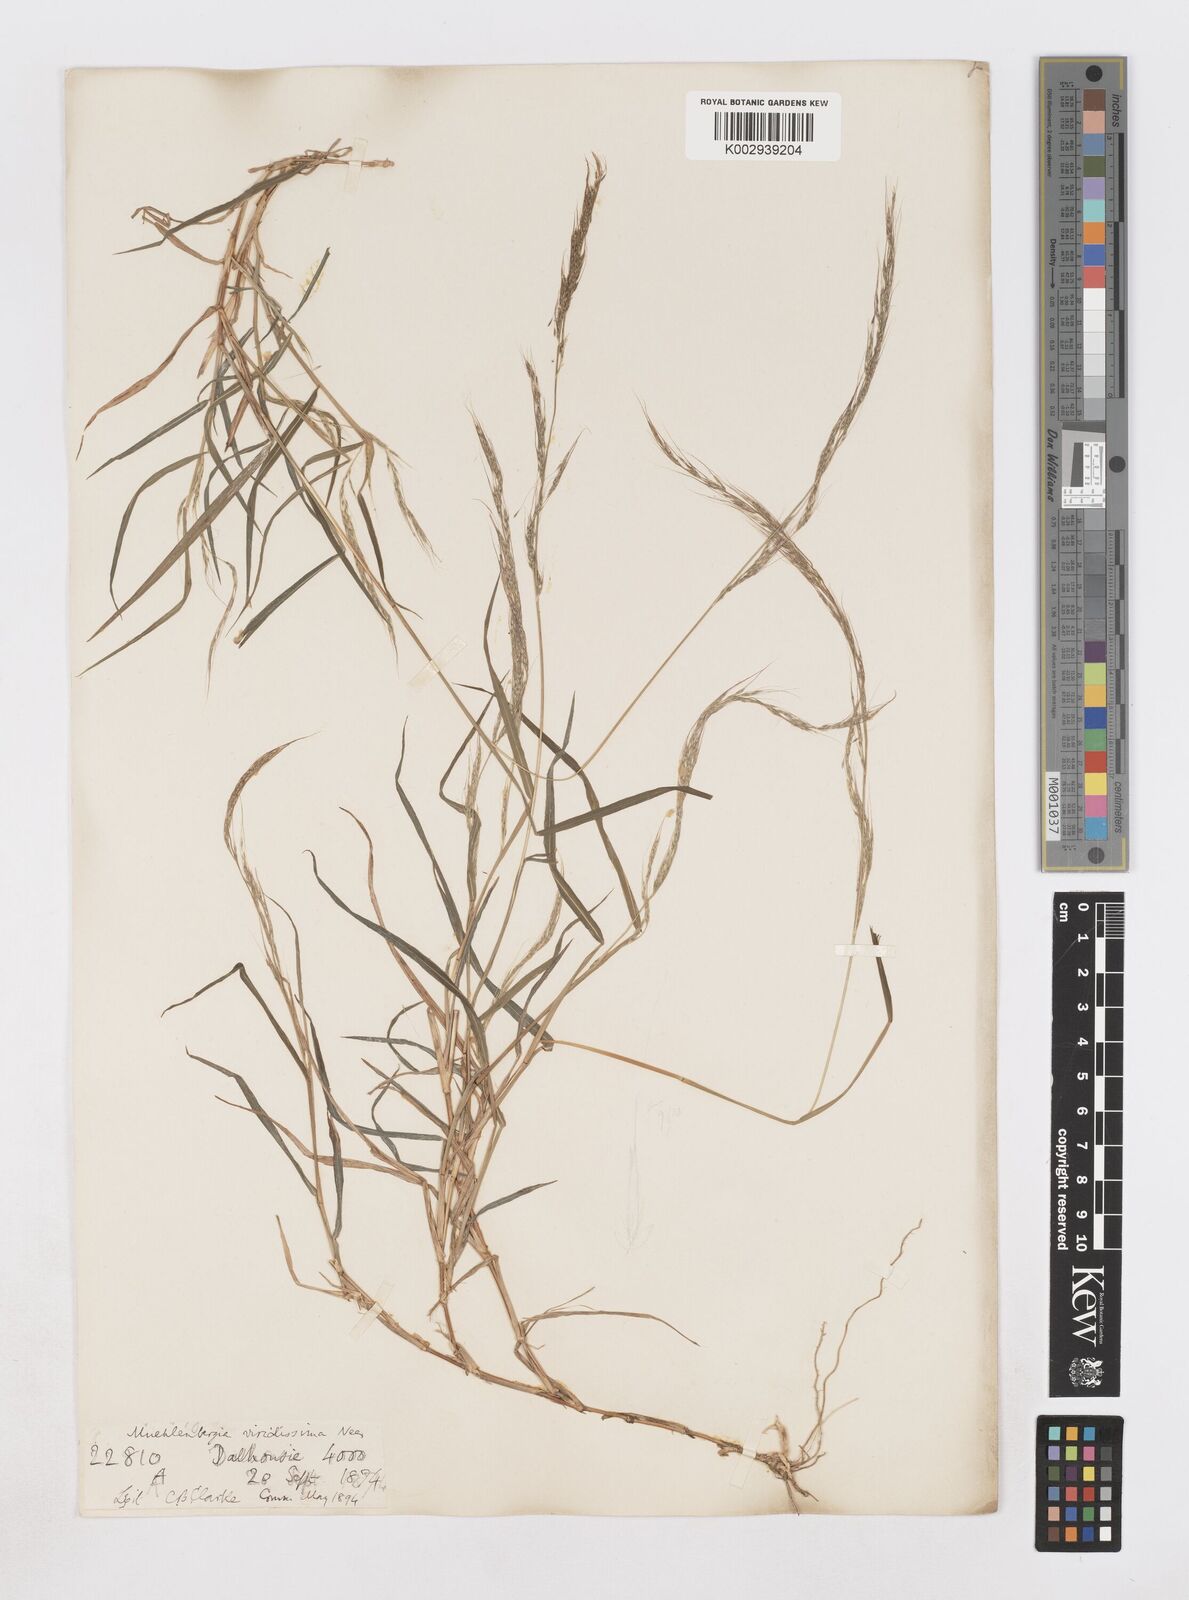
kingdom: Plantae
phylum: Tracheophyta
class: Liliopsida
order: Poales
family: Poaceae
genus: Muhlenbergia
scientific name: Muhlenbergia huegelii
